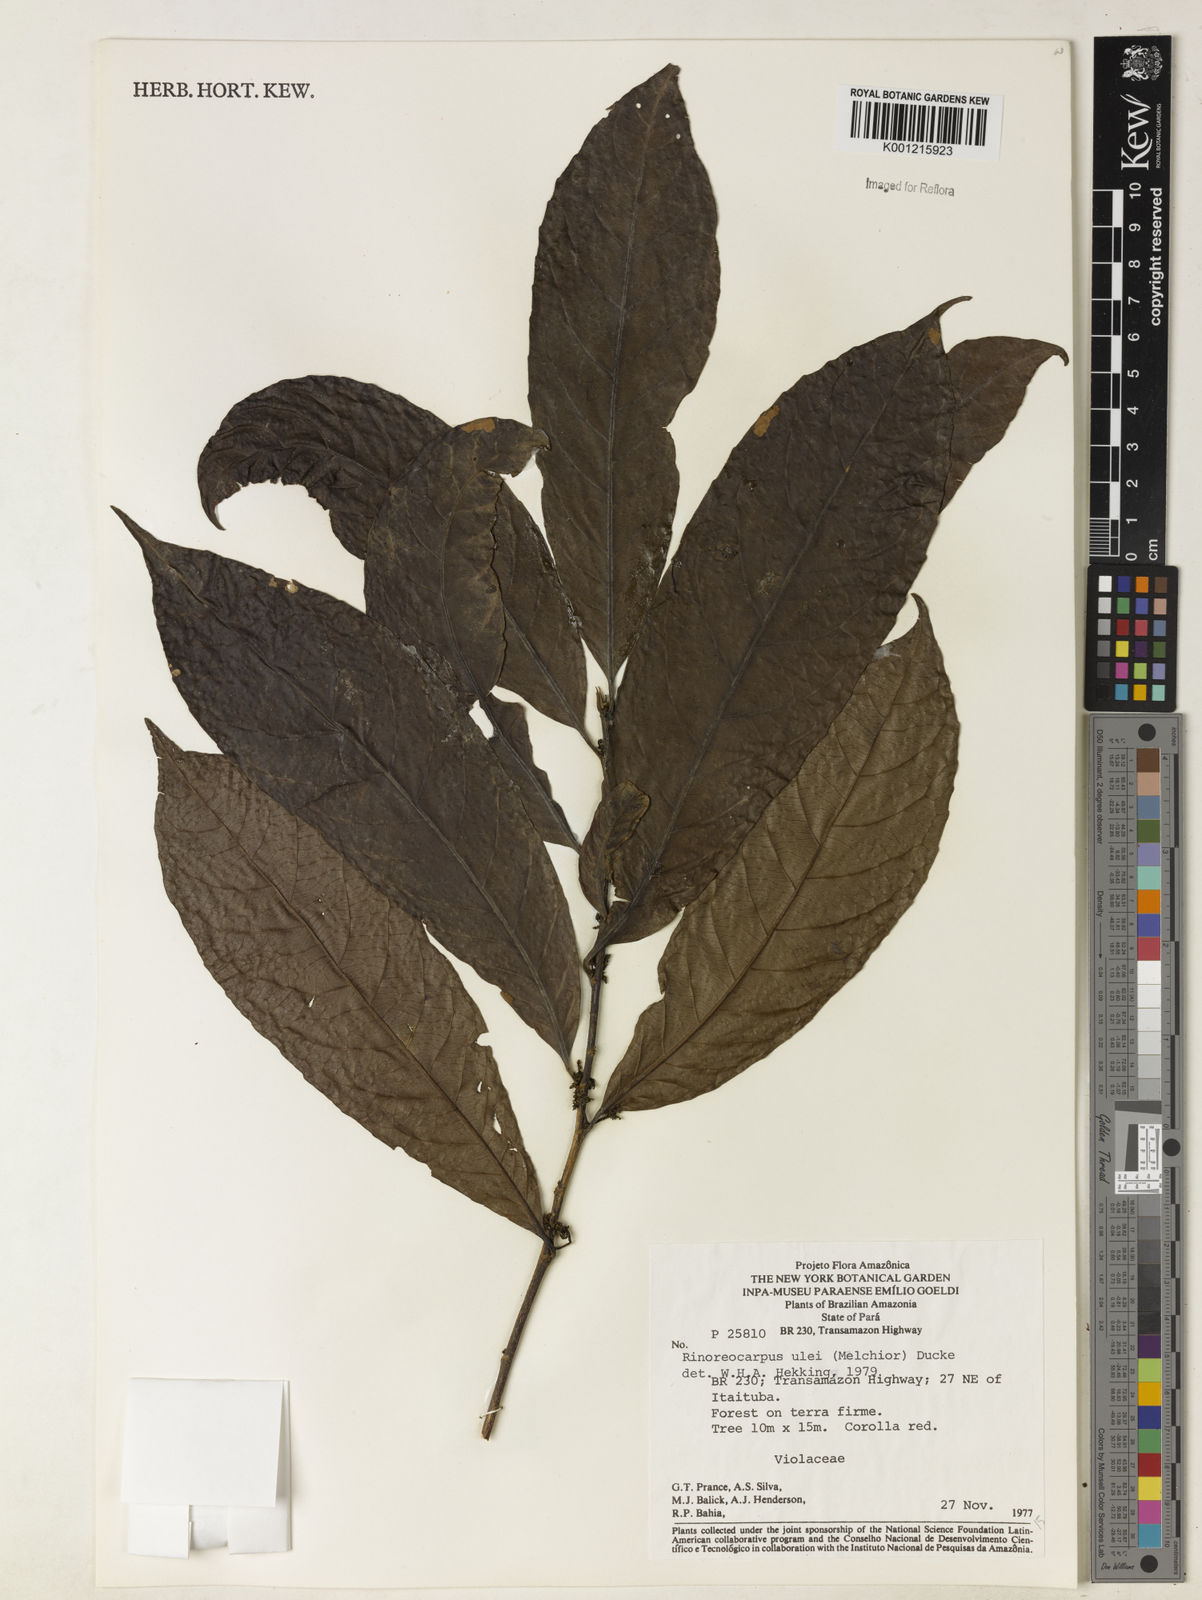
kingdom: Plantae
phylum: Tracheophyta
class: Magnoliopsida
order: Malpighiales
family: Violaceae
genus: Rinorea
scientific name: Rinorea
